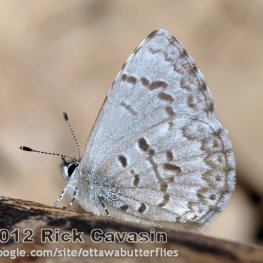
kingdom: Animalia
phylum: Arthropoda
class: Insecta
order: Lepidoptera
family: Lycaenidae
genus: Celastrina
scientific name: Celastrina lucia
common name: Northern Spring Azure
